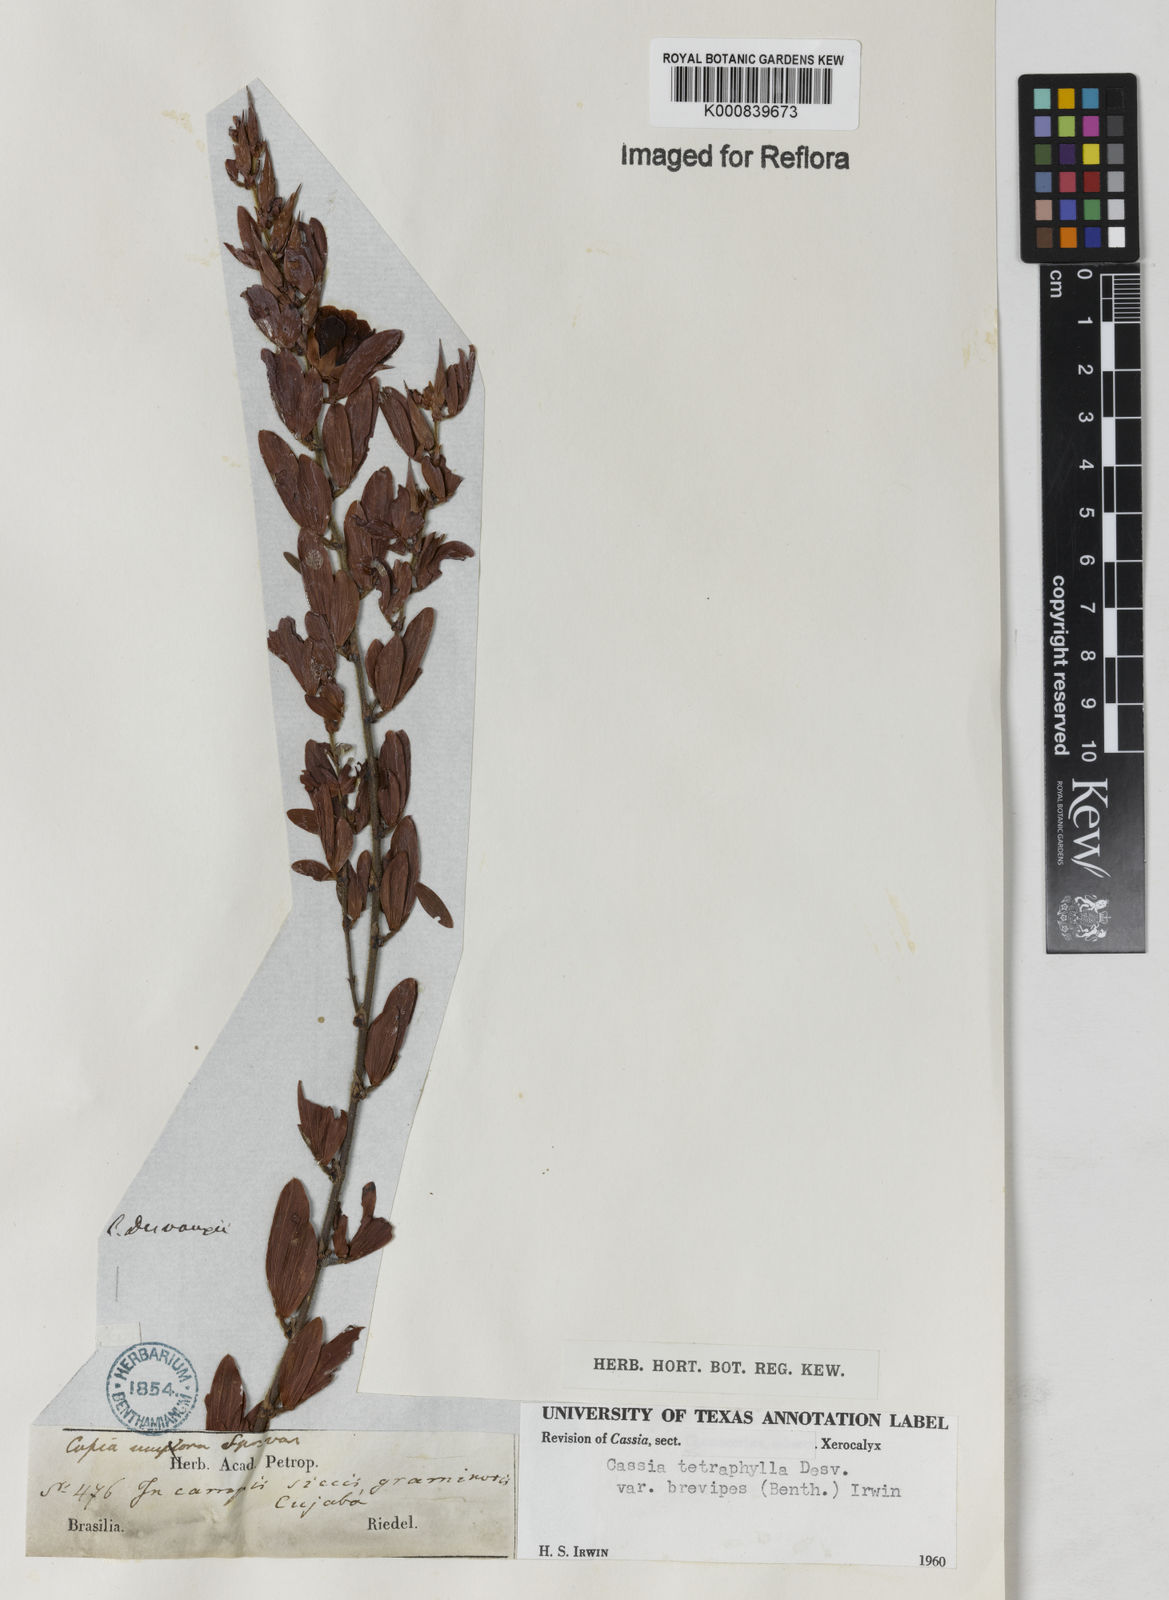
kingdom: Plantae
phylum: Tracheophyta
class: Magnoliopsida
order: Fabales
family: Fabaceae
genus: Chamaecrista
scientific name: Chamaecrista desvauxii
